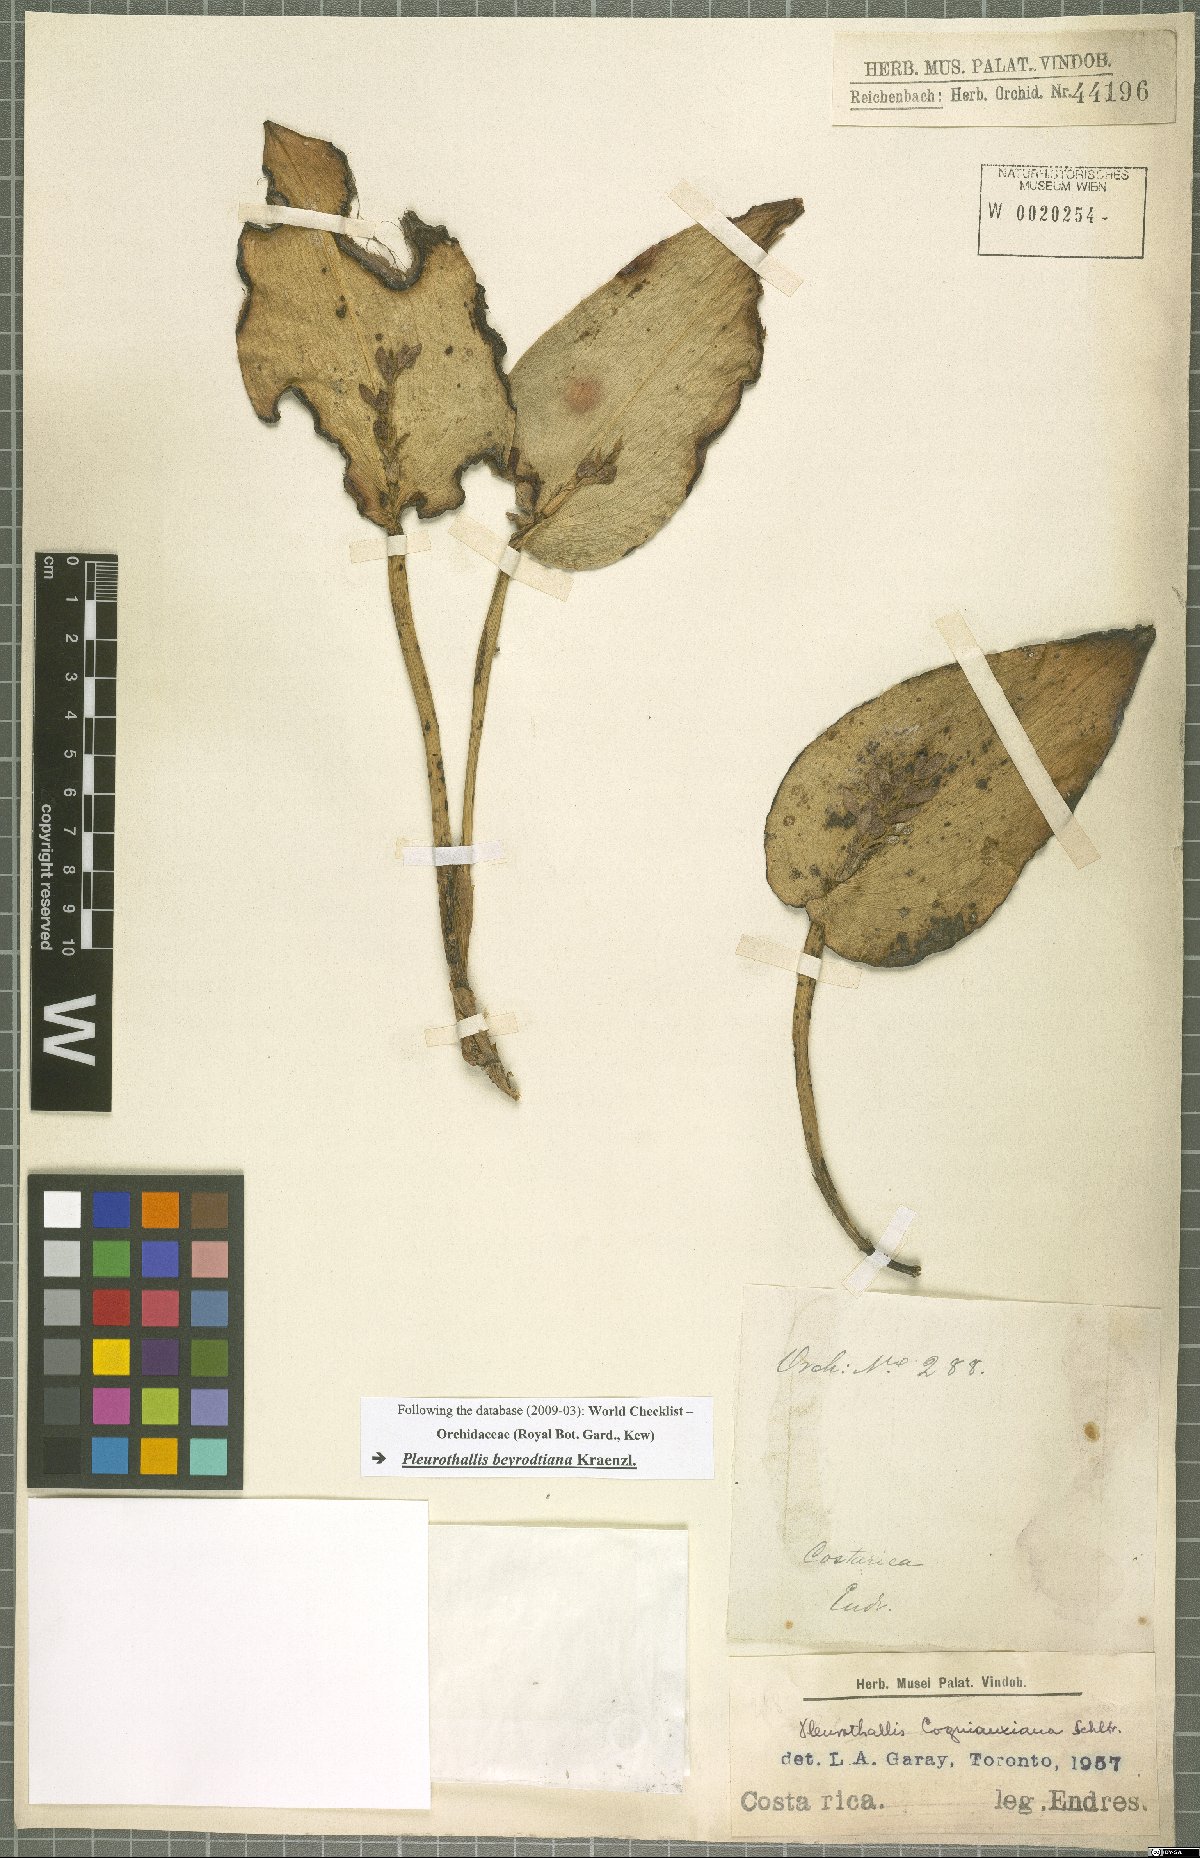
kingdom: Plantae
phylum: Tracheophyta
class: Liliopsida
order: Asparagales
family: Orchidaceae
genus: Acianthera
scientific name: Acianthera beyrodtiana
